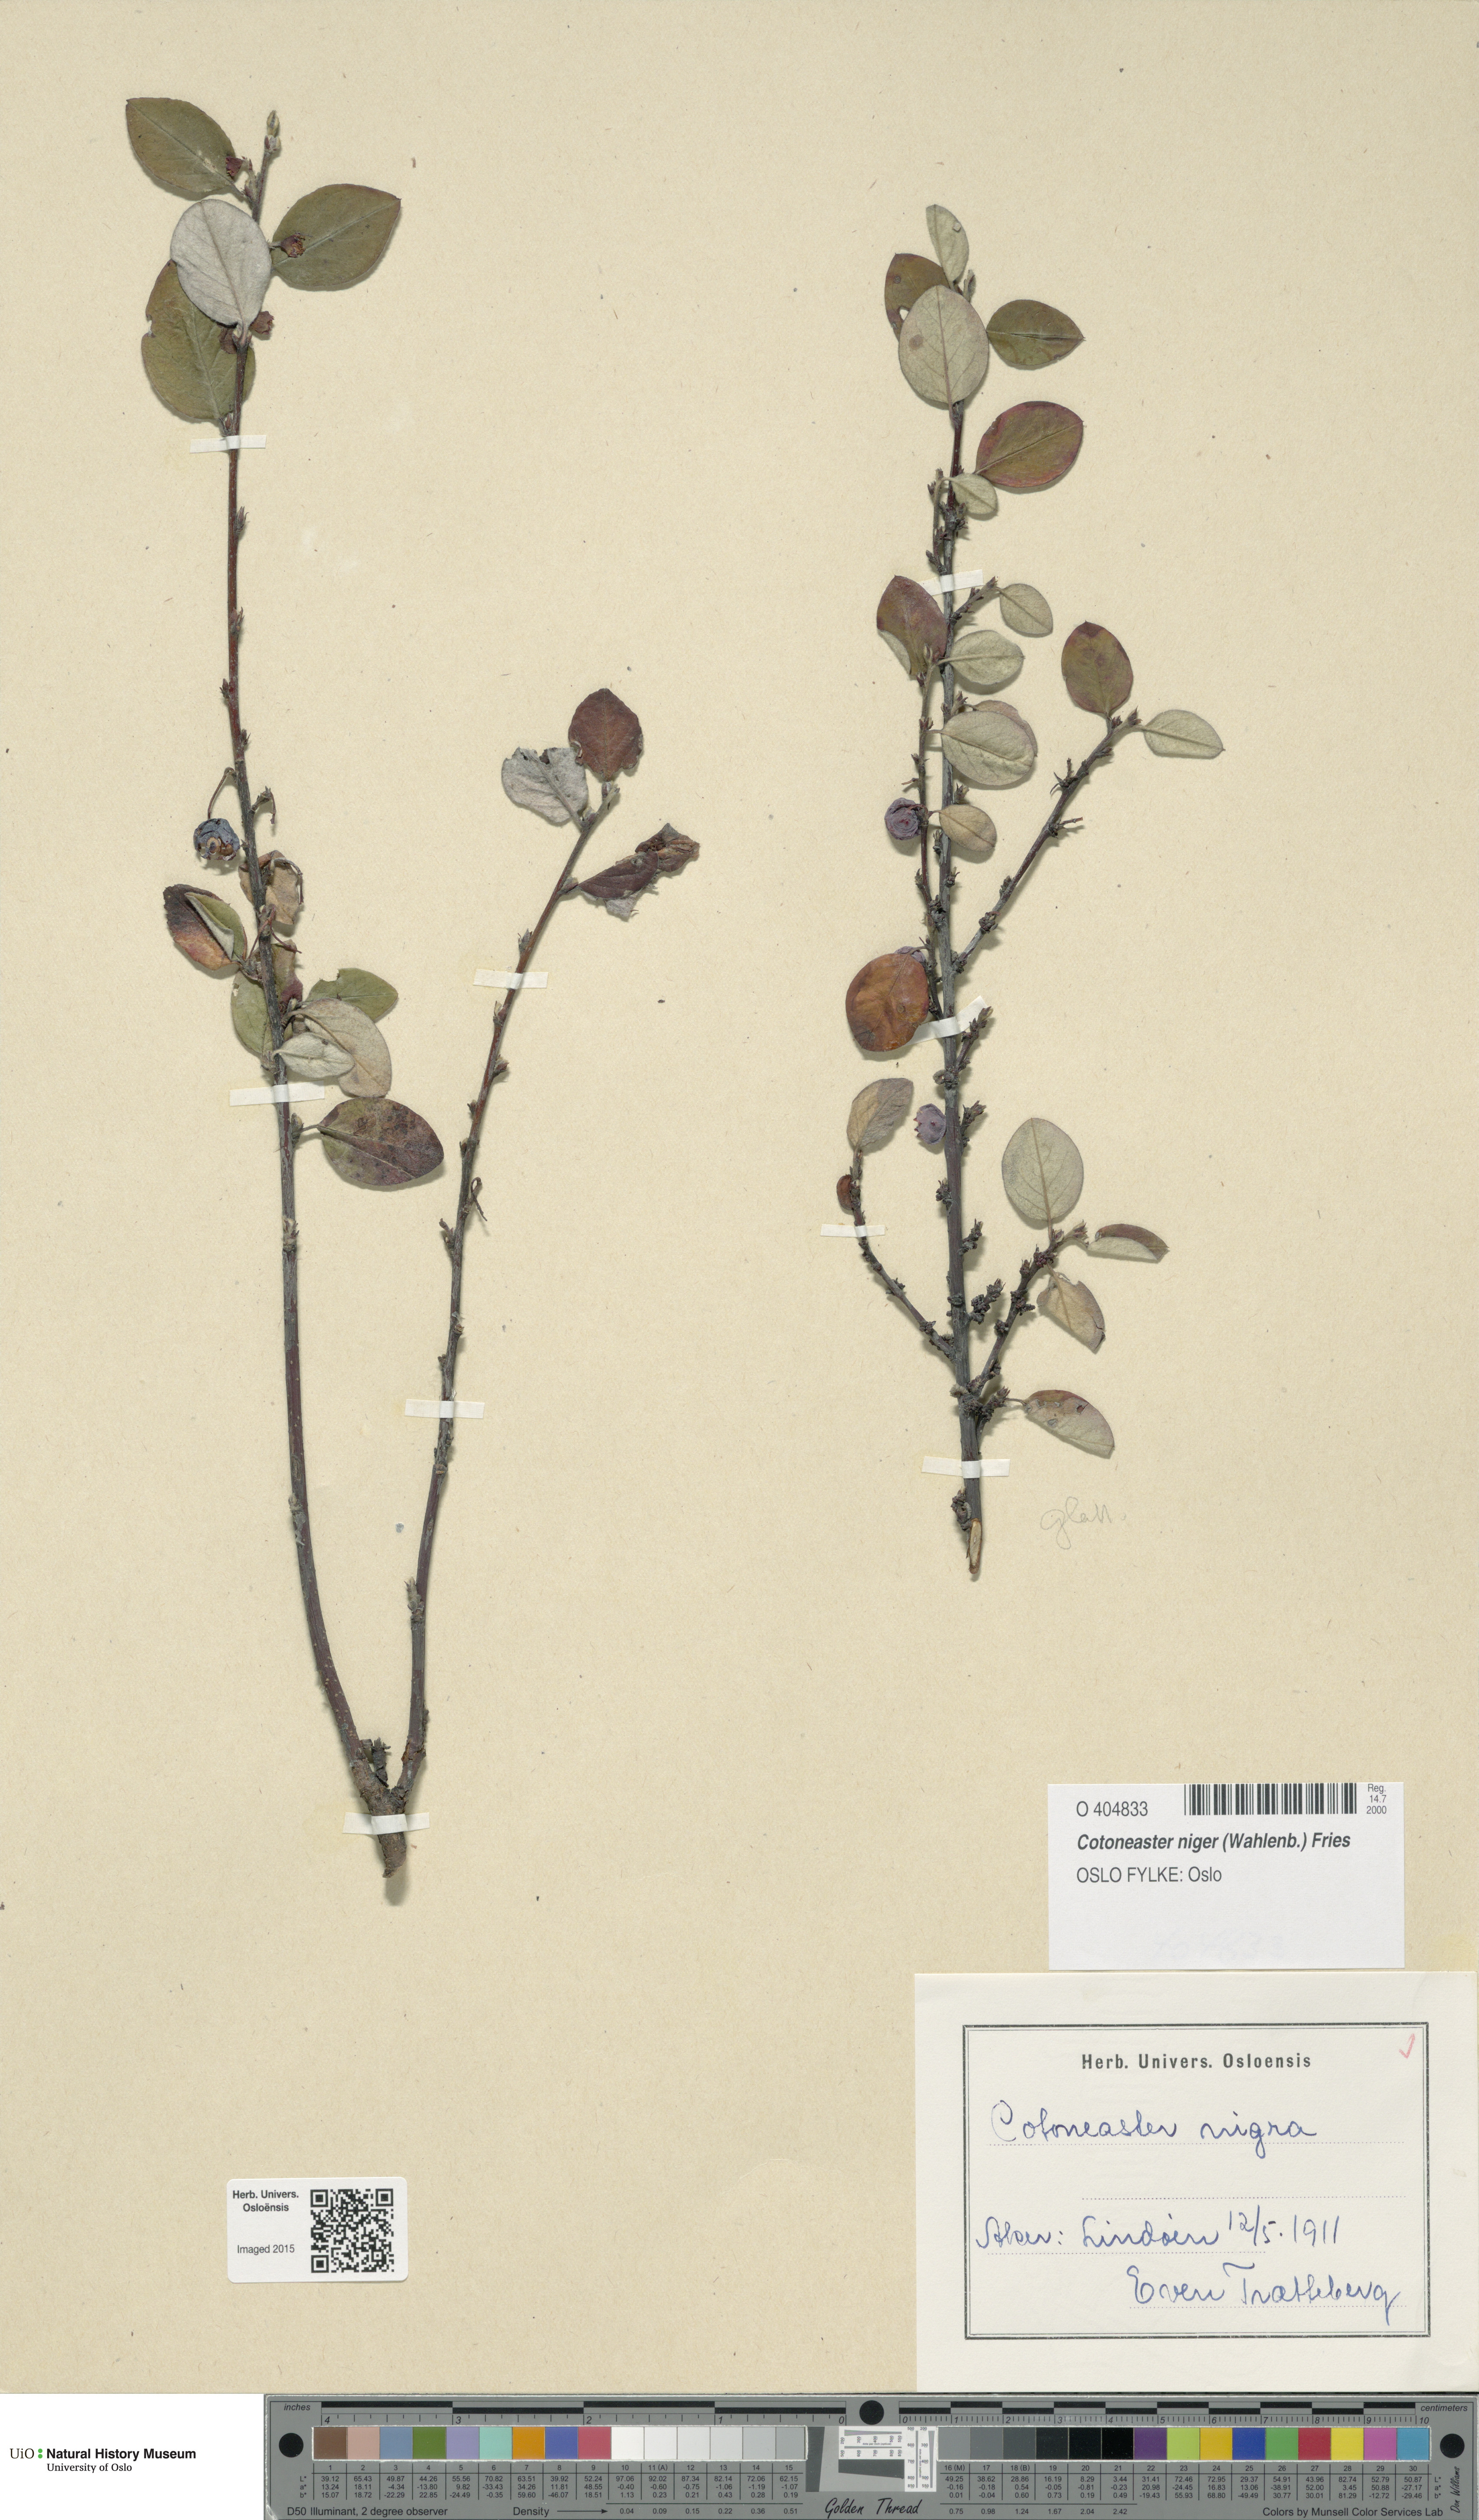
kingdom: Plantae
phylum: Tracheophyta
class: Magnoliopsida
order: Rosales
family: Rosaceae
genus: Cotoneaster
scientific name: Cotoneaster niger
